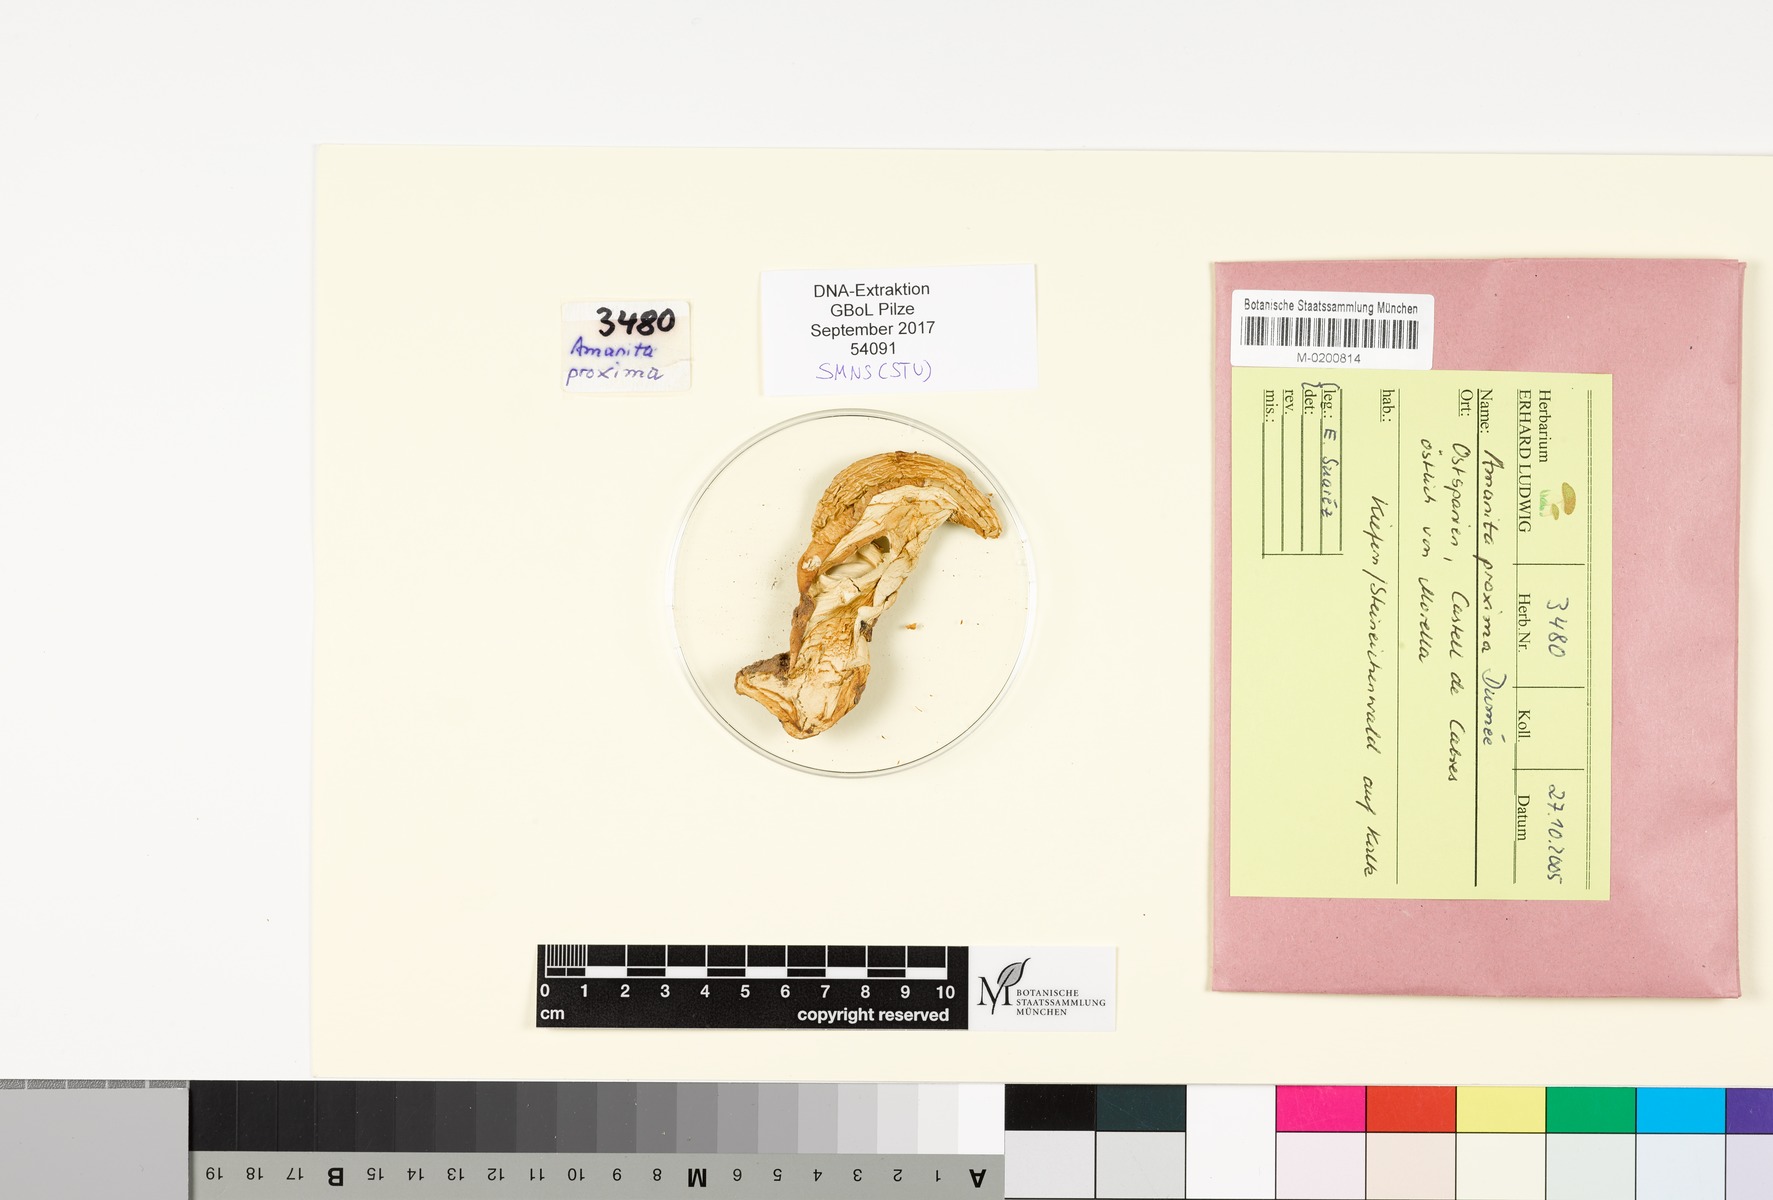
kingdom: Fungi
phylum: Basidiomycota
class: Agaricomycetes
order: Agaricales
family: Amanitaceae
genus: Amanita
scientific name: Amanita proxima
